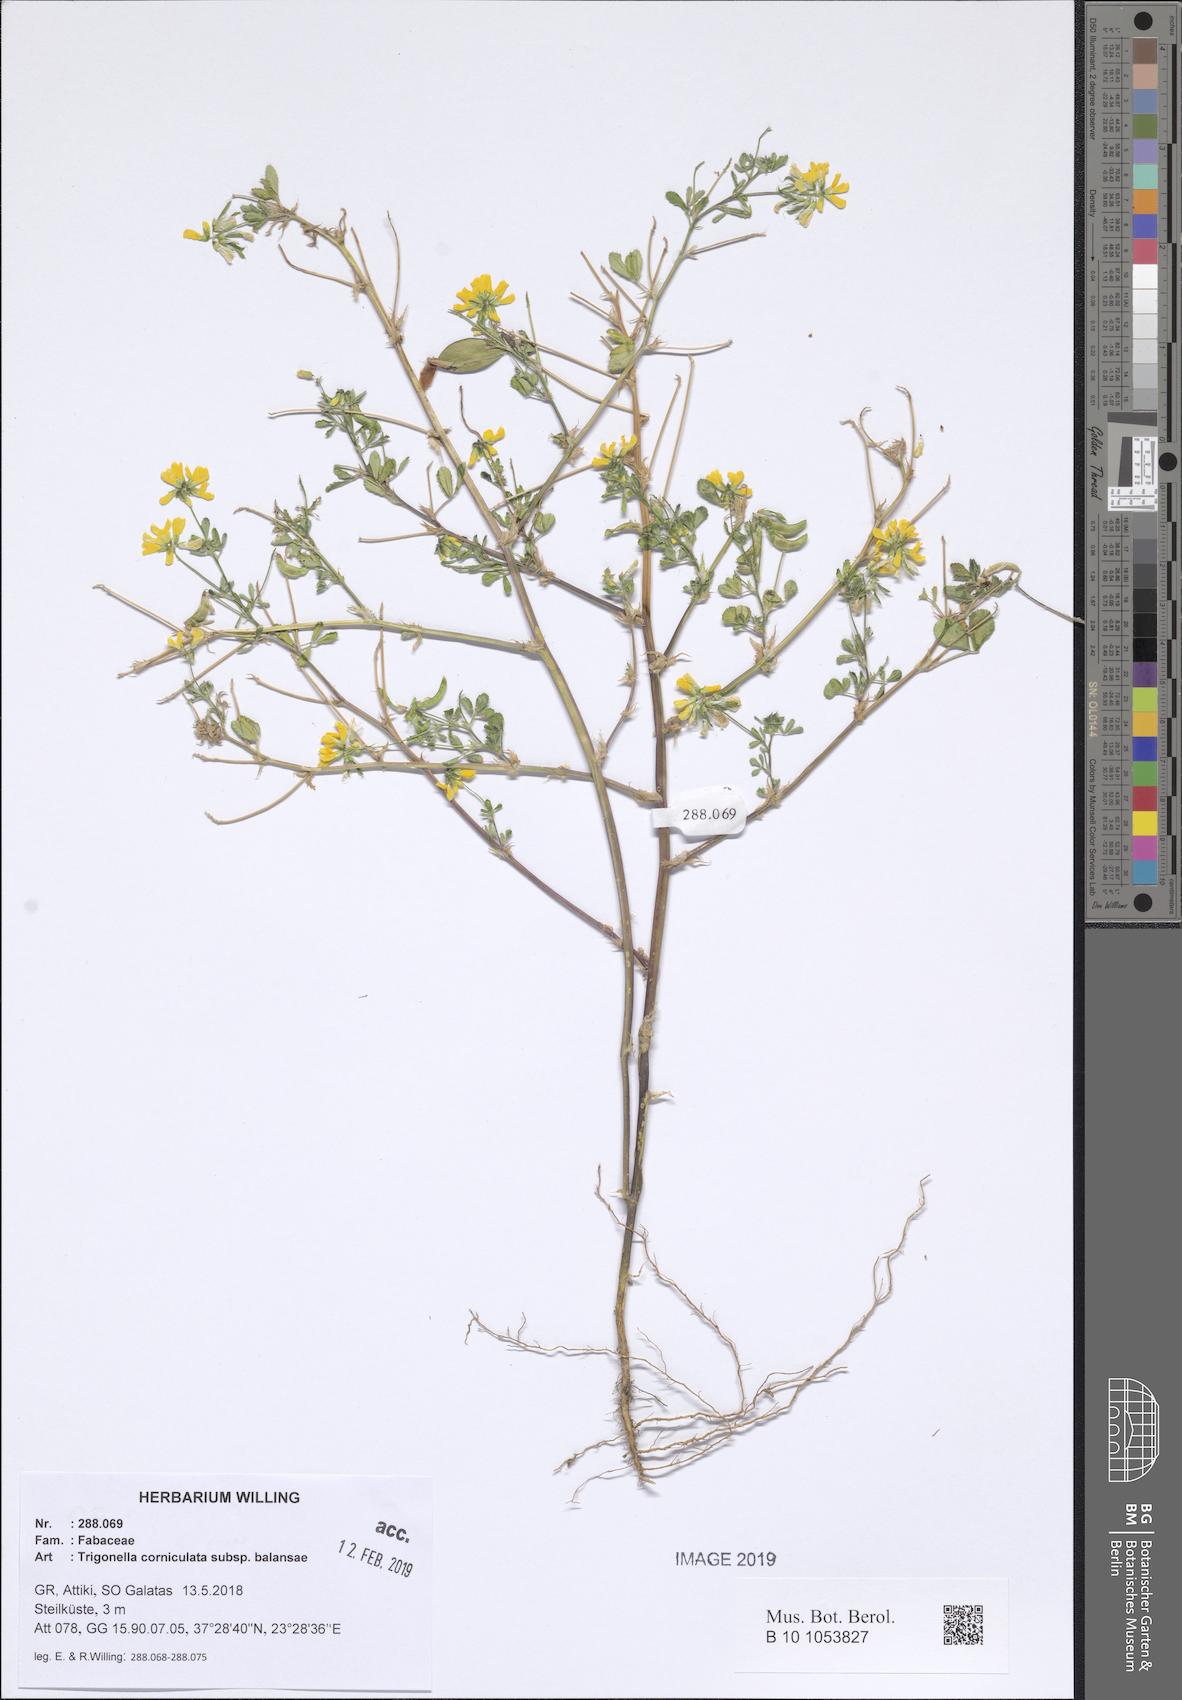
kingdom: Plantae
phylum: Tracheophyta
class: Magnoliopsida
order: Fabales
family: Fabaceae
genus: Trigonella
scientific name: Trigonella balansae
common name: Sickle-fruited fenugreek
